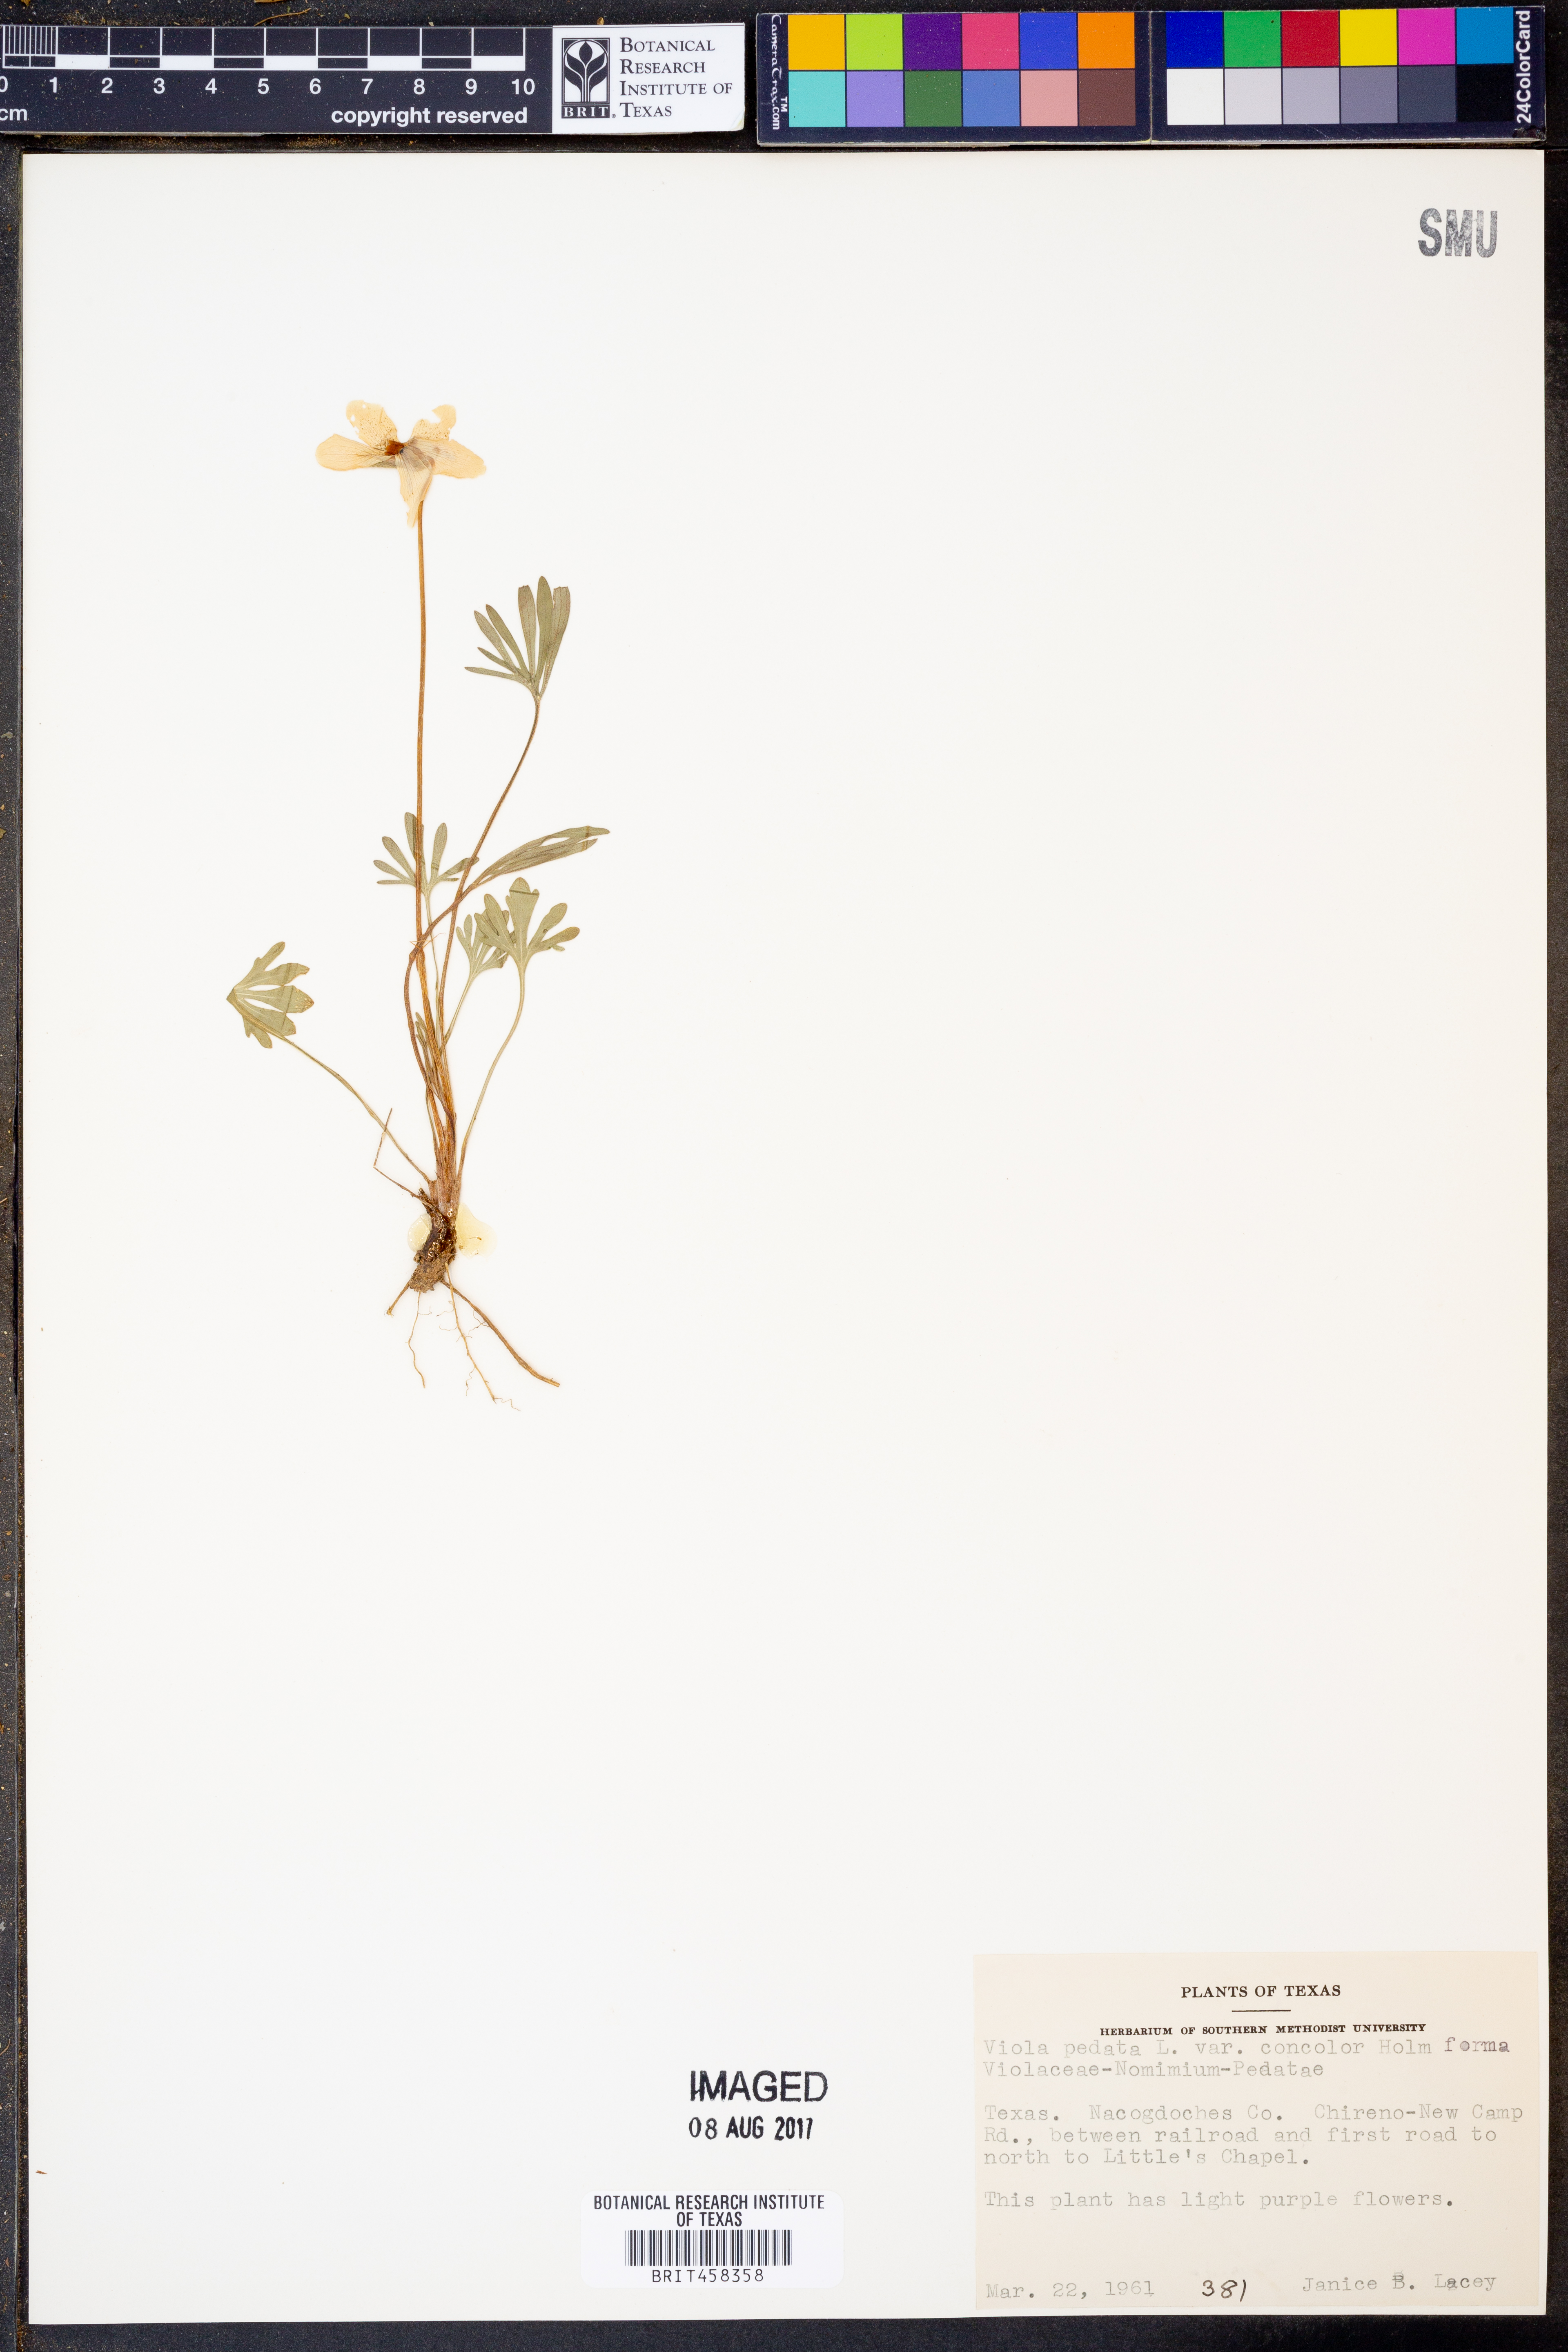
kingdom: Plantae
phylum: Tracheophyta
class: Magnoliopsida
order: Malpighiales
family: Violaceae
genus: Viola
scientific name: Viola pedata
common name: Pansy violet
